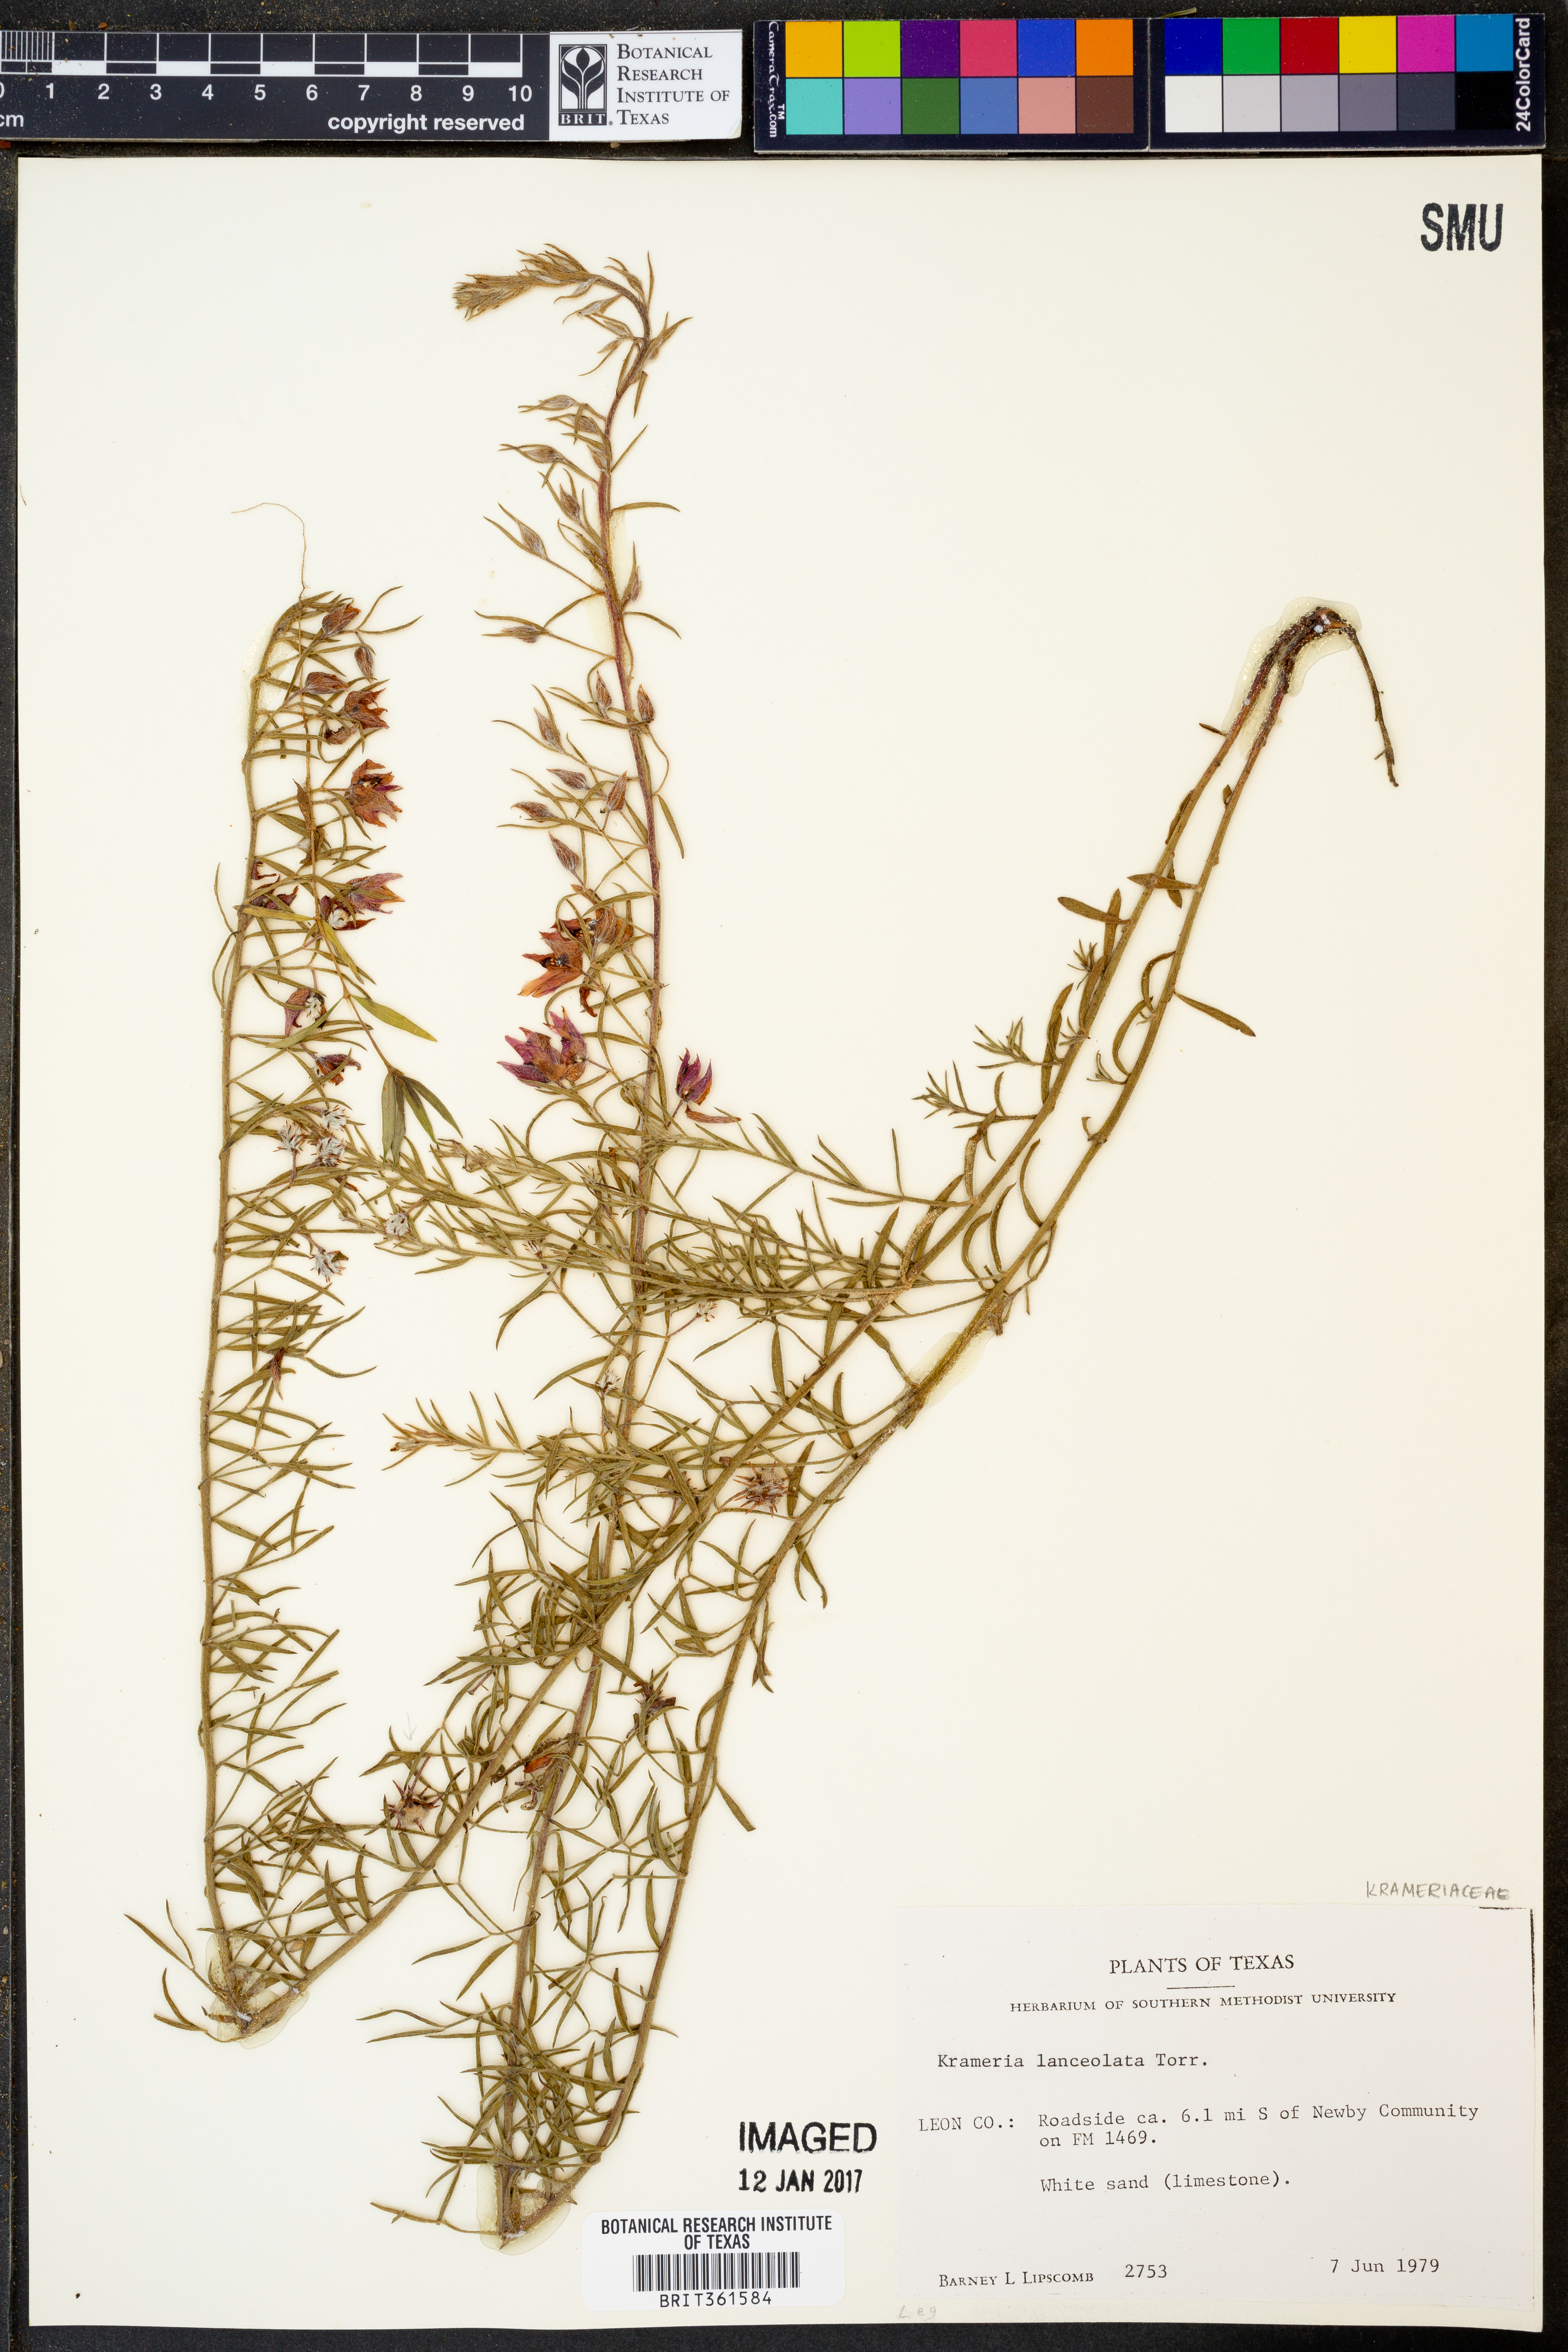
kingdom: Plantae
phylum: Tracheophyta
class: Magnoliopsida
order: Zygophyllales
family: Krameriaceae
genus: Krameria
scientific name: Krameria lanceolata
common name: Ratany
